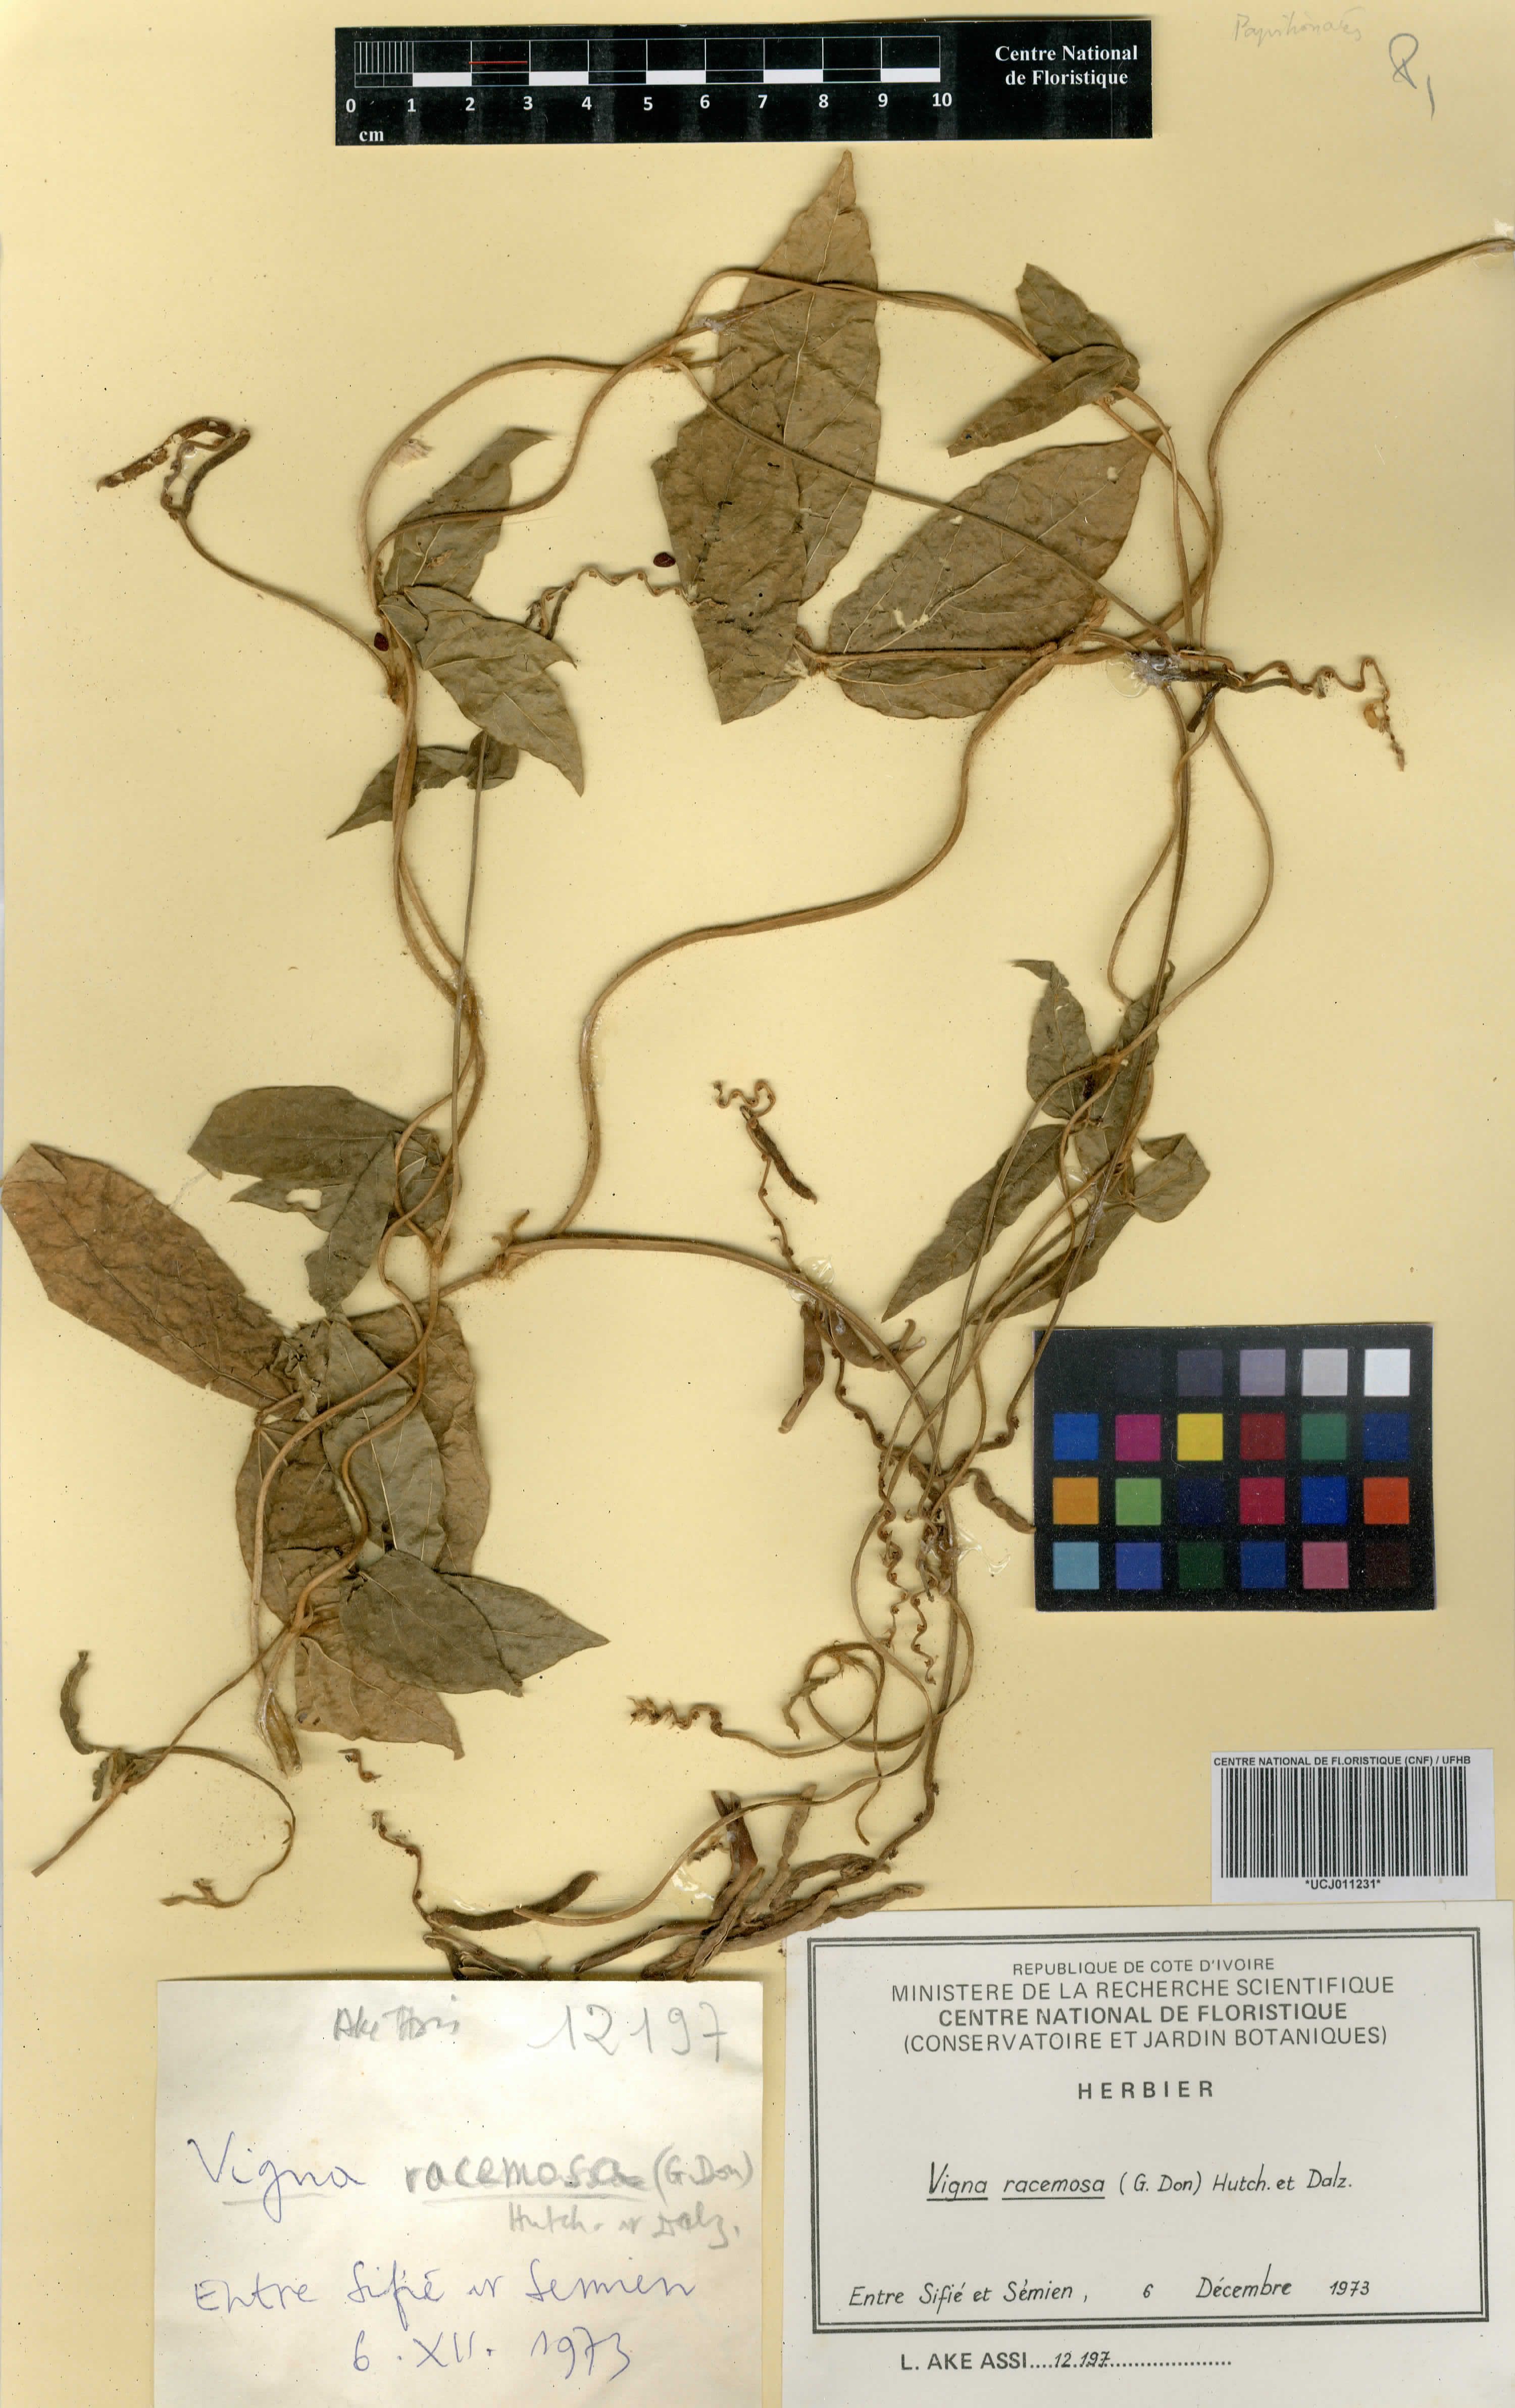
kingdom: Plantae
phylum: Tracheophyta
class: Magnoliopsida
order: Fabales
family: Fabaceae
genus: Vigna
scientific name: Vigna racemosa
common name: Beans not eaten
